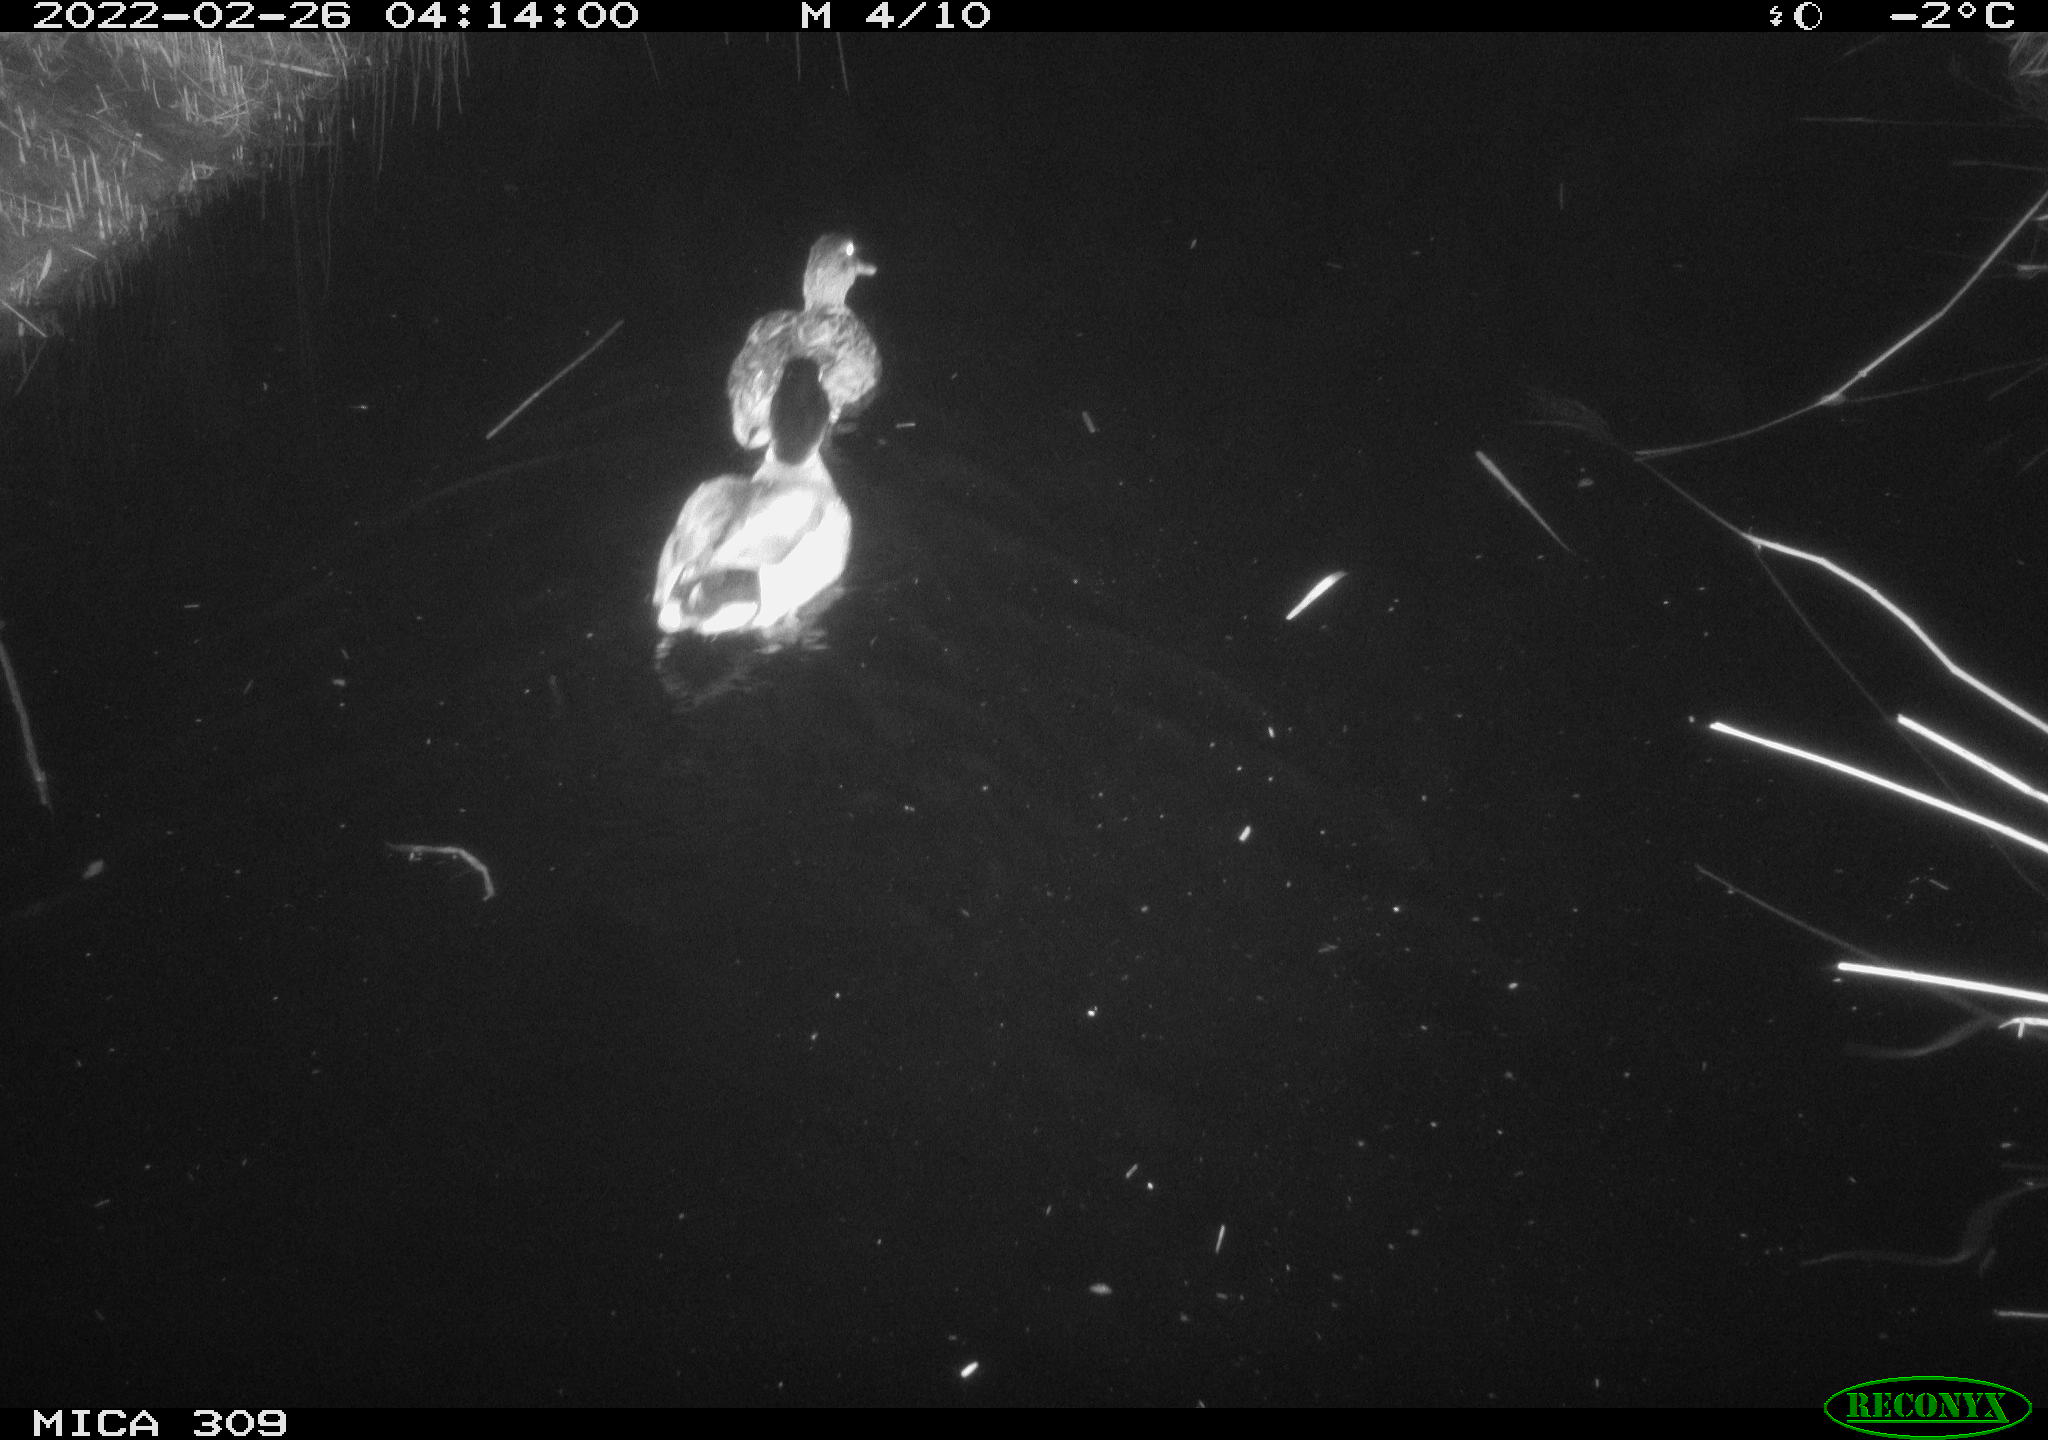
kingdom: Animalia
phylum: Chordata
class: Aves
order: Anseriformes
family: Anatidae
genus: Anas
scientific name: Anas platyrhynchos
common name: Mallard
